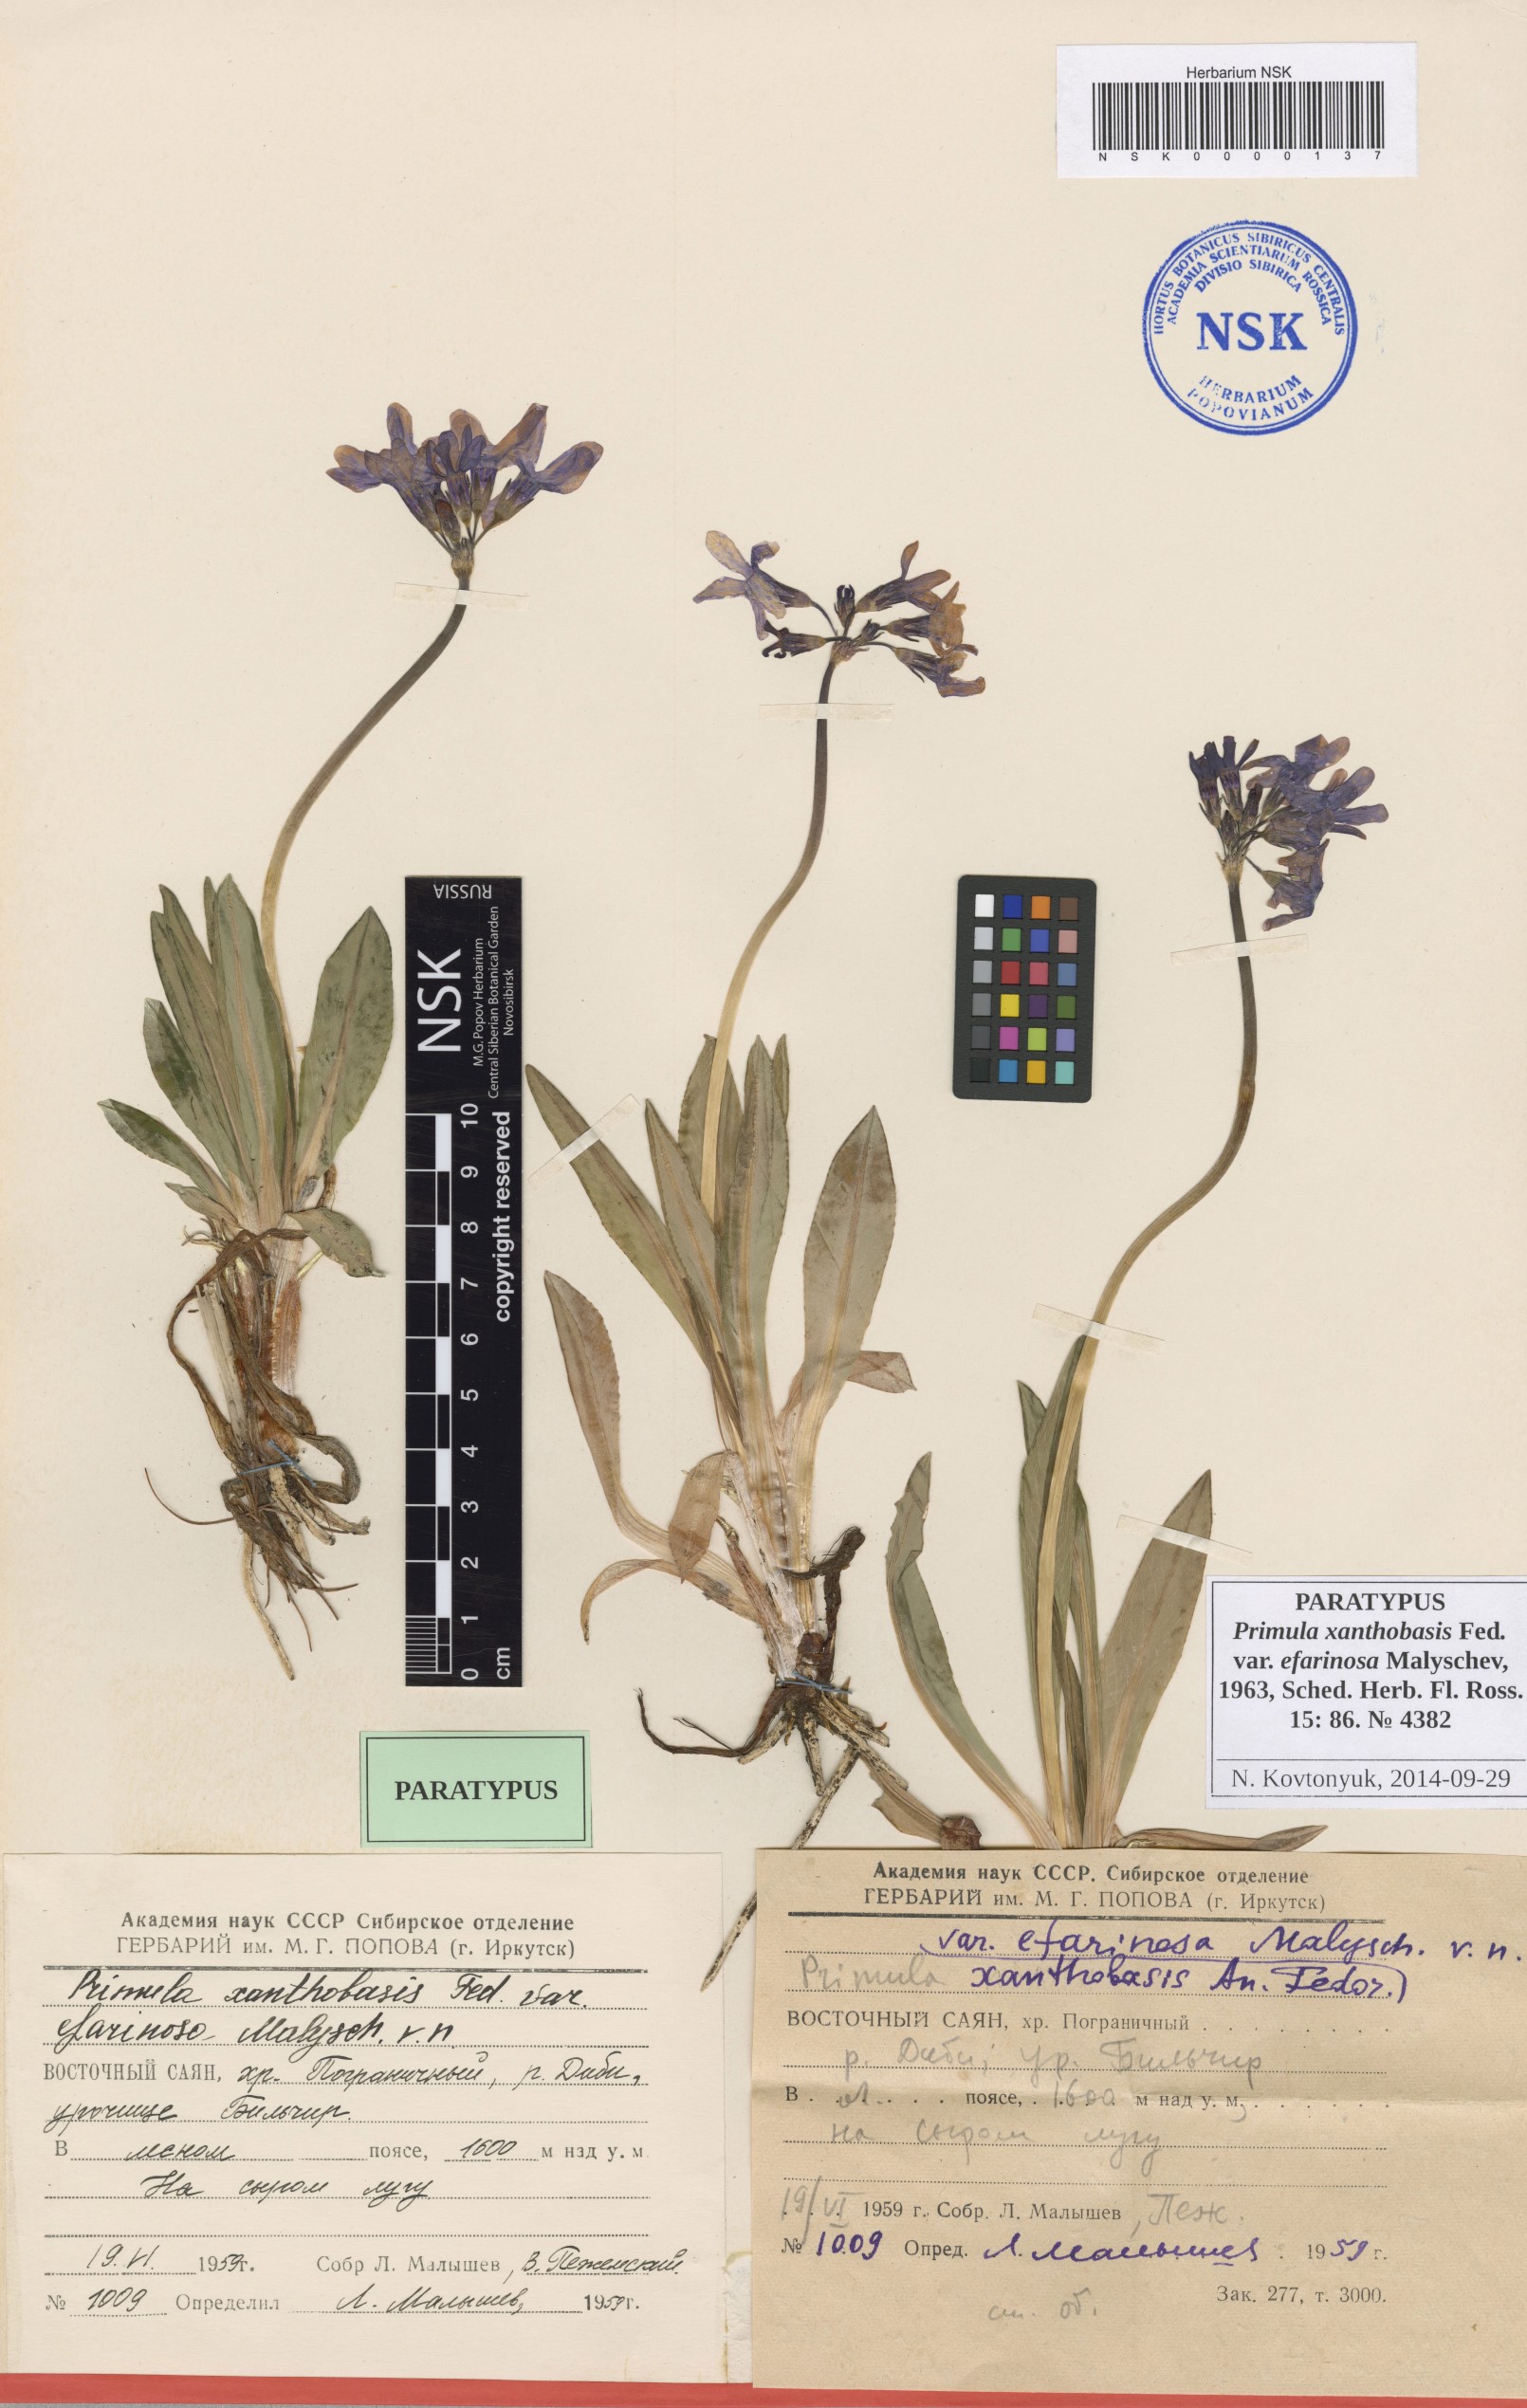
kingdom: Plantae
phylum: Tracheophyta
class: Magnoliopsida
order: Ericales
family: Primulaceae
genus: Primula
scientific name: Primula nivalis
